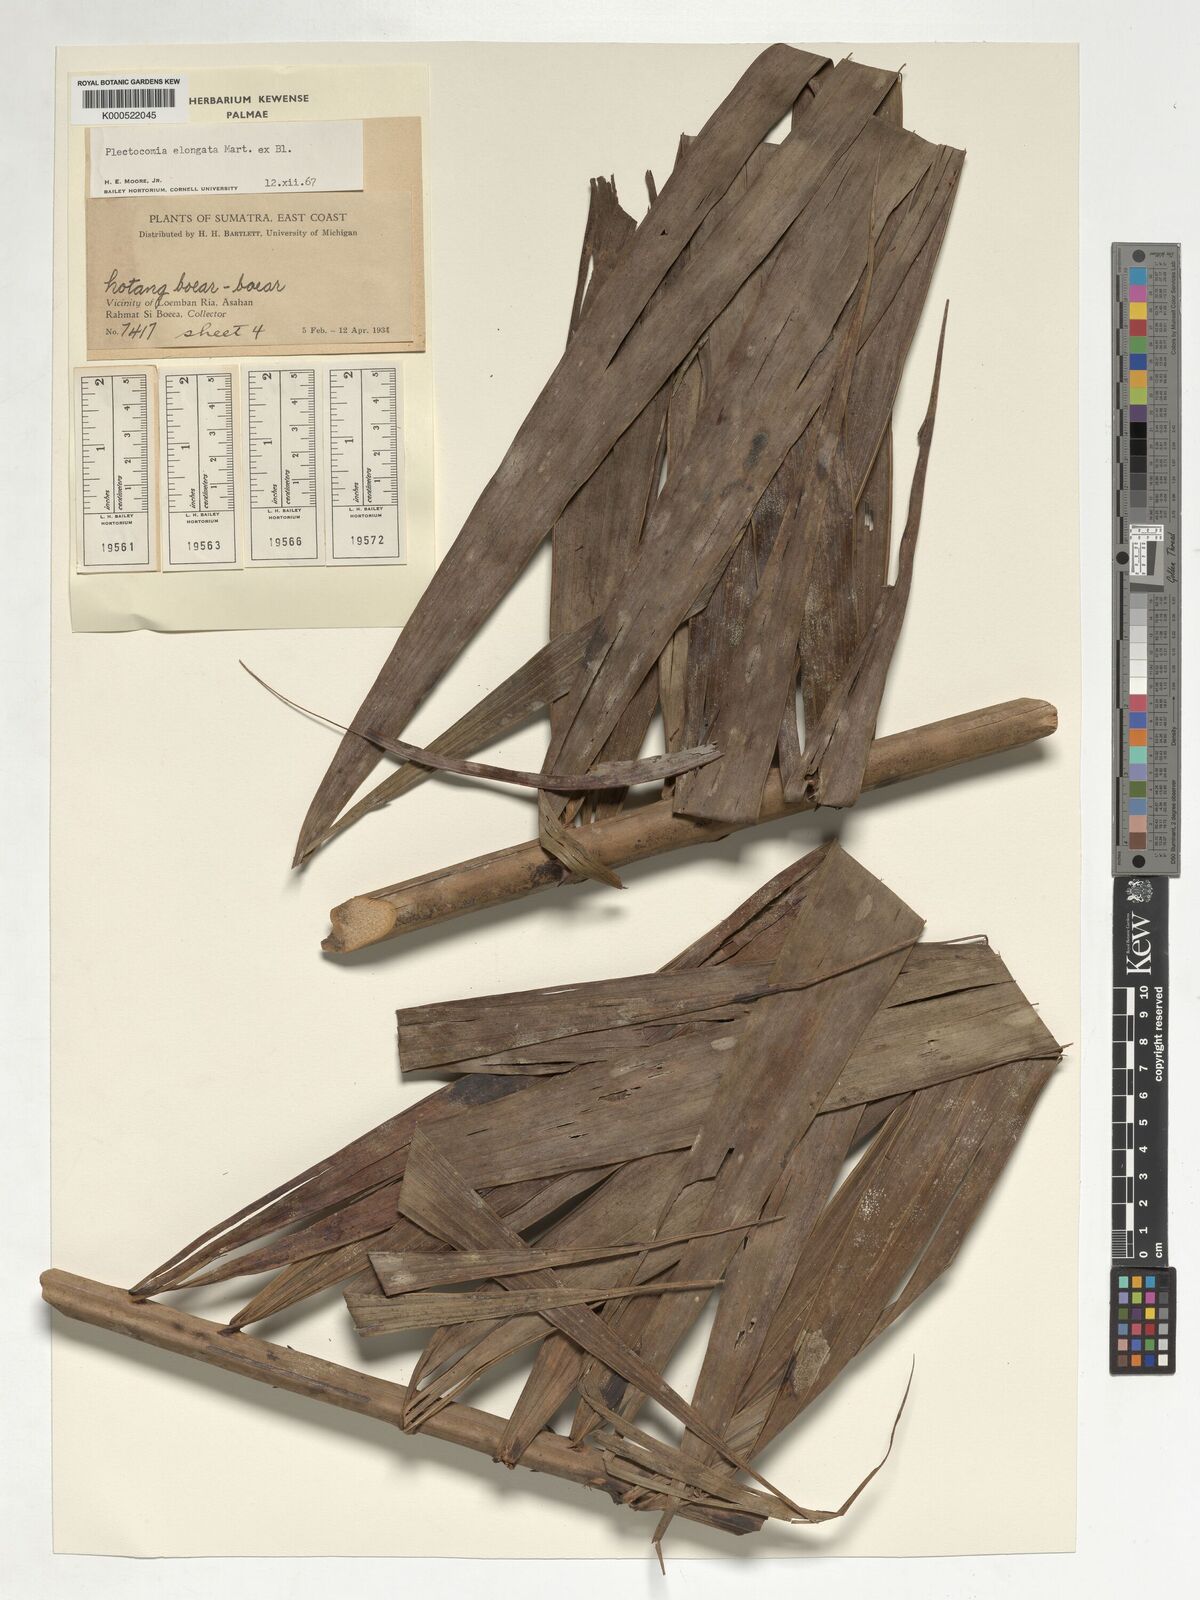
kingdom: Plantae
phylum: Tracheophyta
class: Liliopsida
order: Arecales
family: Arecaceae
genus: Plectocomia
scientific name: Plectocomia elongata
